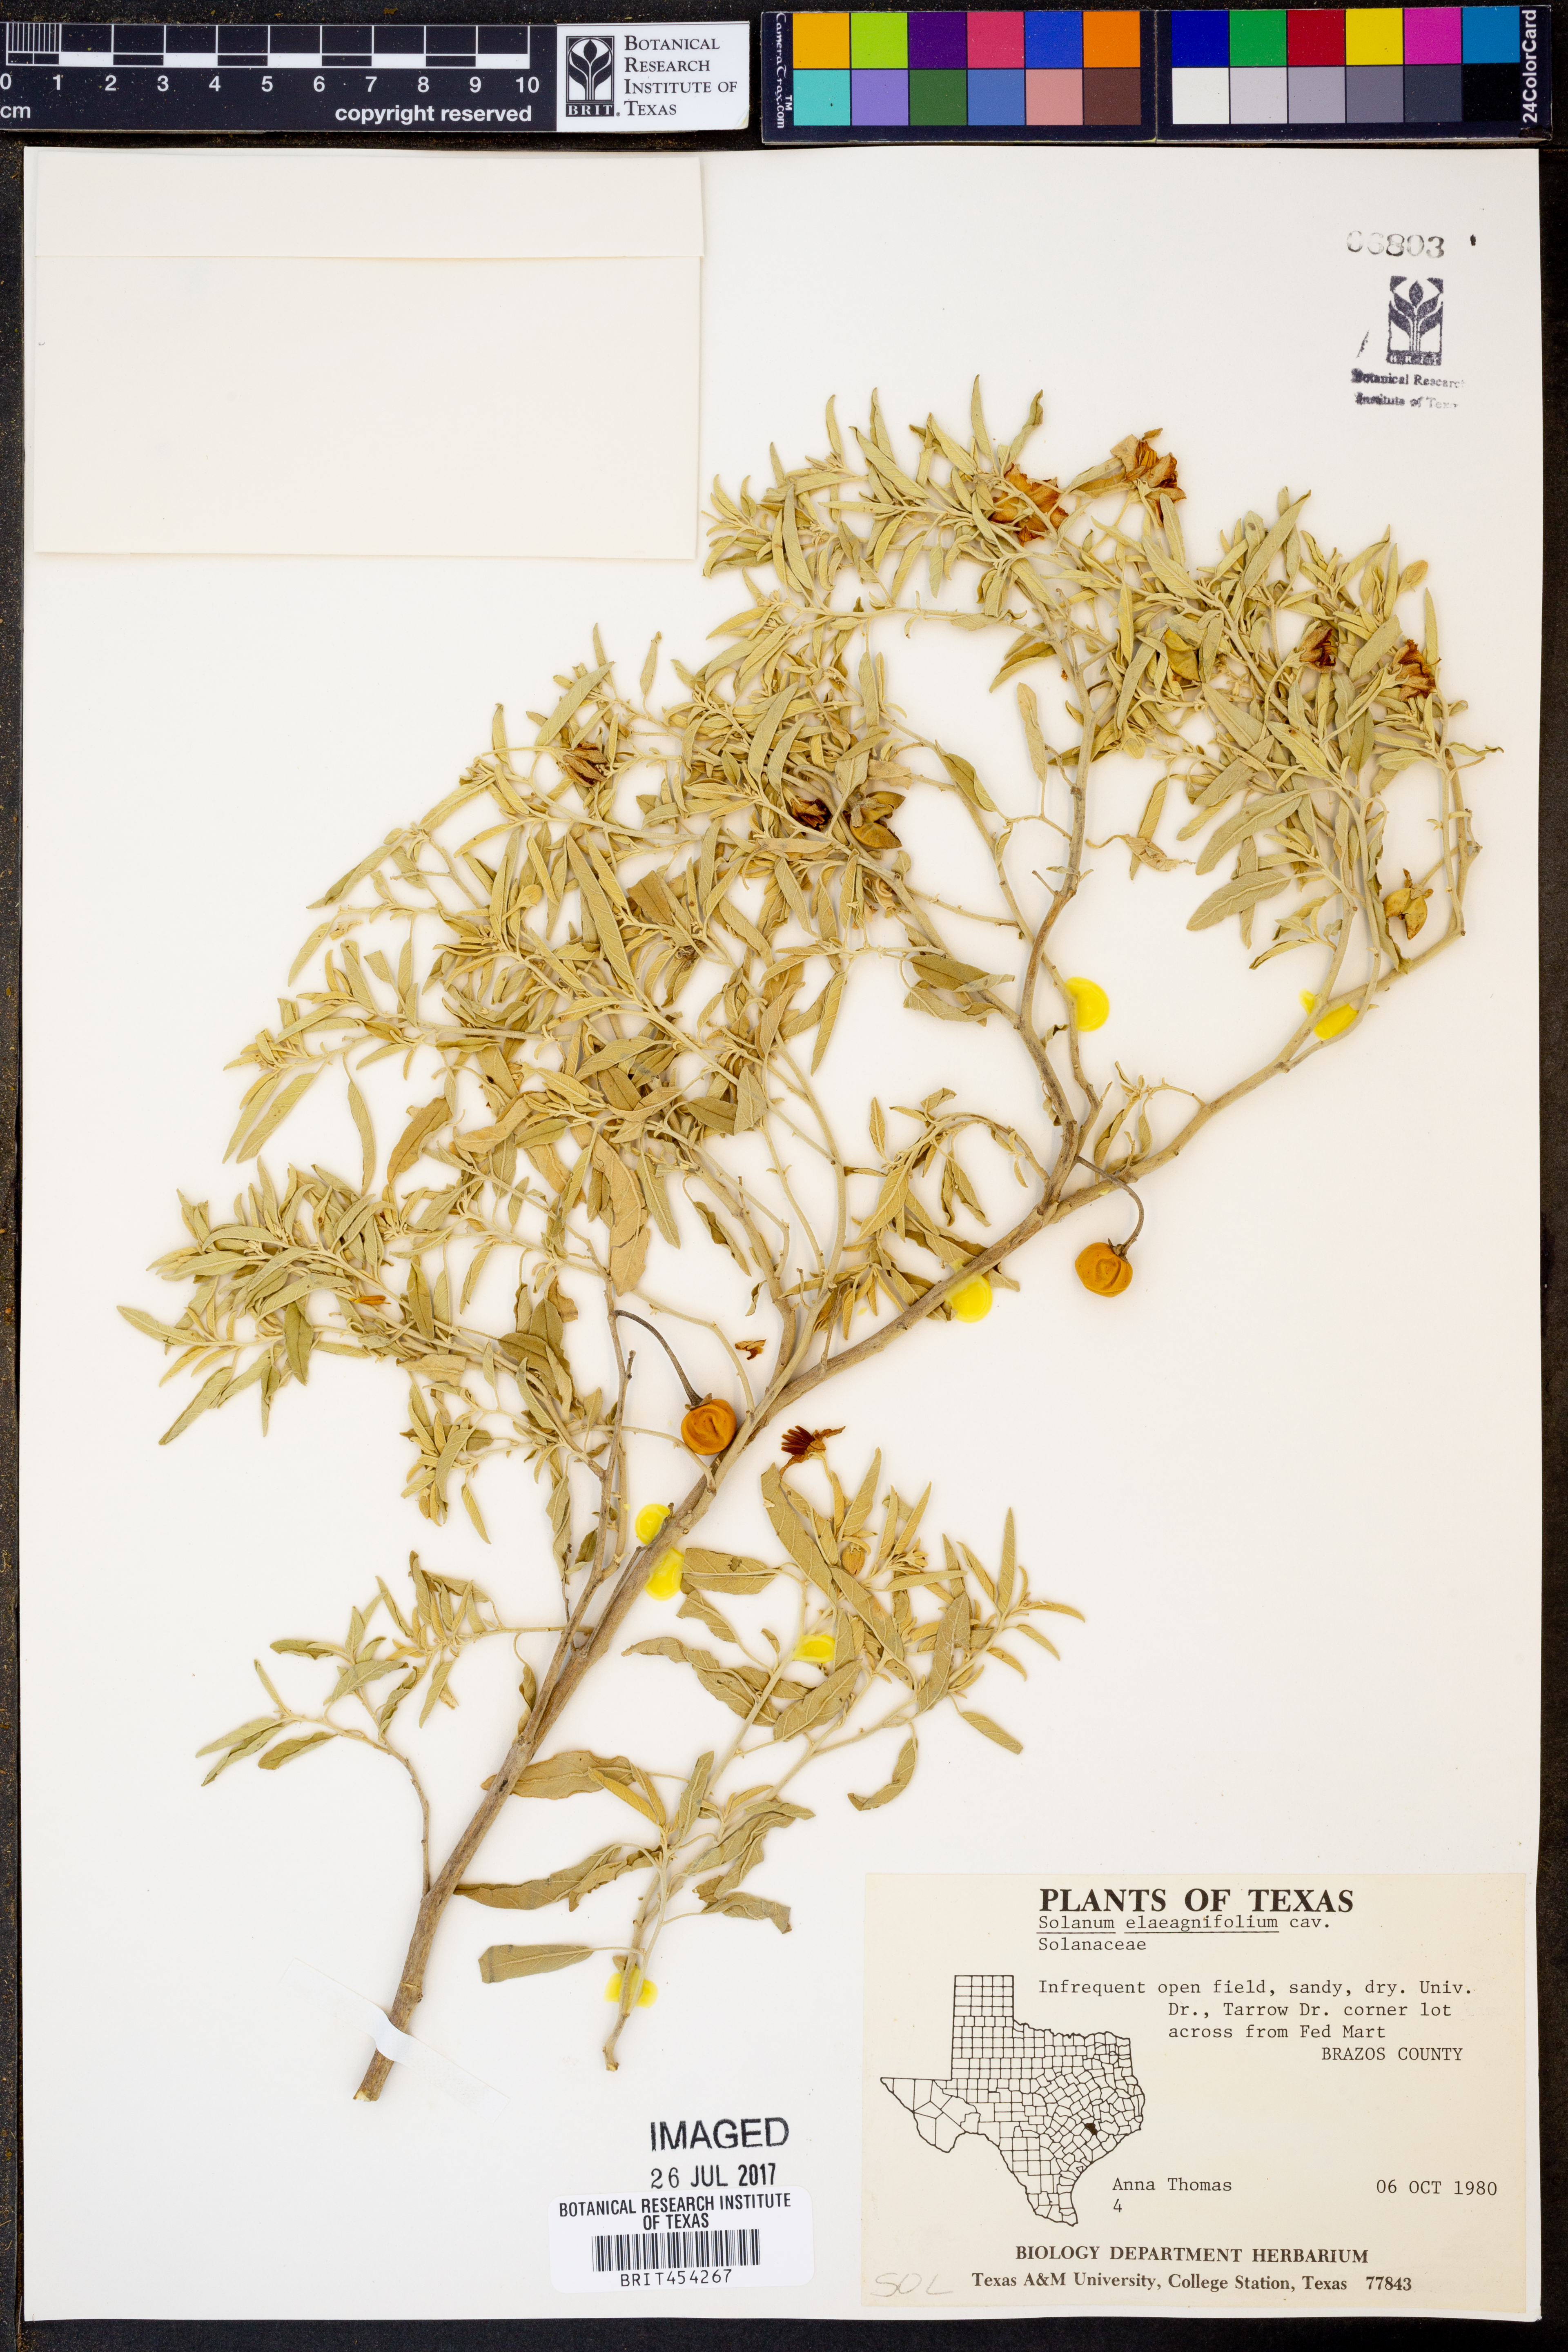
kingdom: Plantae
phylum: Tracheophyta
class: Magnoliopsida
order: Solanales
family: Solanaceae
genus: Solanum
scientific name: Solanum elaeagnifolium
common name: Silverleaf nightshade
